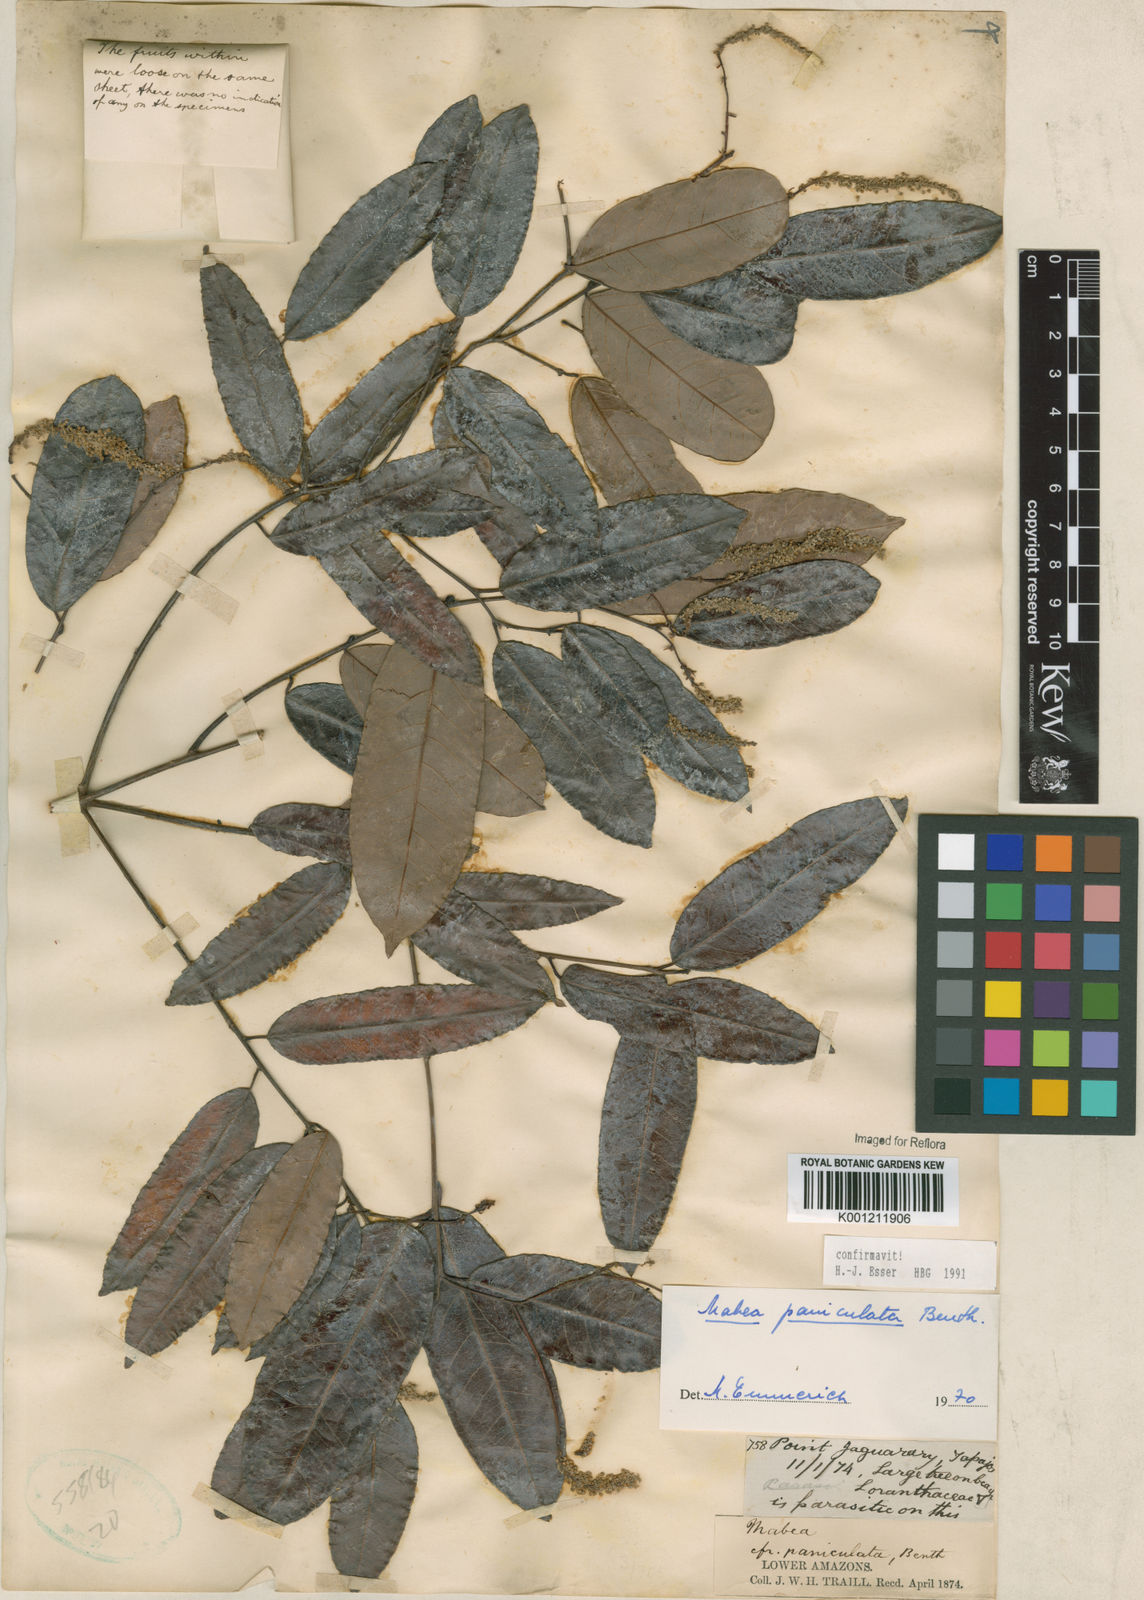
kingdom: Plantae
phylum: Tracheophyta
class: Magnoliopsida
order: Malpighiales
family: Euphorbiaceae
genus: Mabea
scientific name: Mabea paniculata
